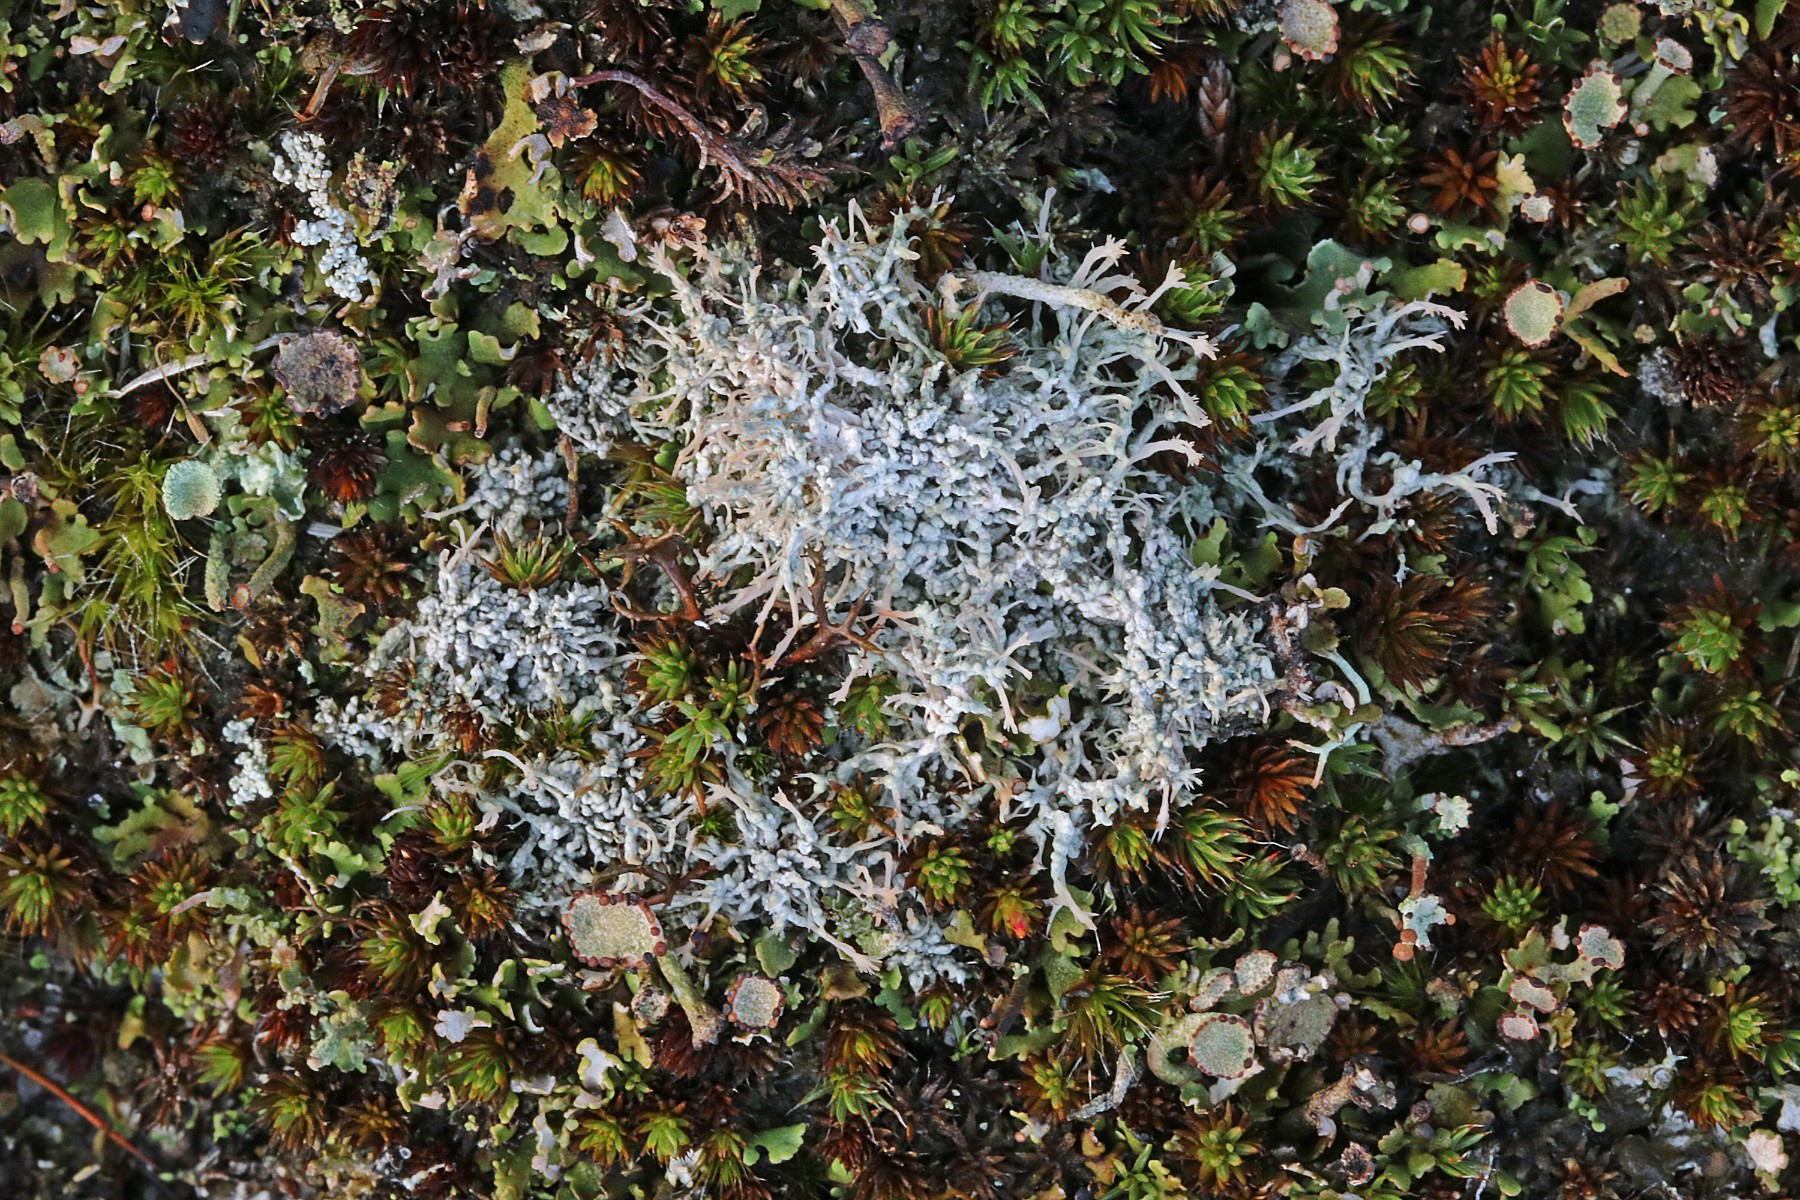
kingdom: Fungi
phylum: Ascomycota
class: Lecanoromycetes
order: Pertusariales
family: Ochrolechiaceae
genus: Ochrolechia
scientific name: Ochrolechia frigida
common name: fjeld-blegskivelav
